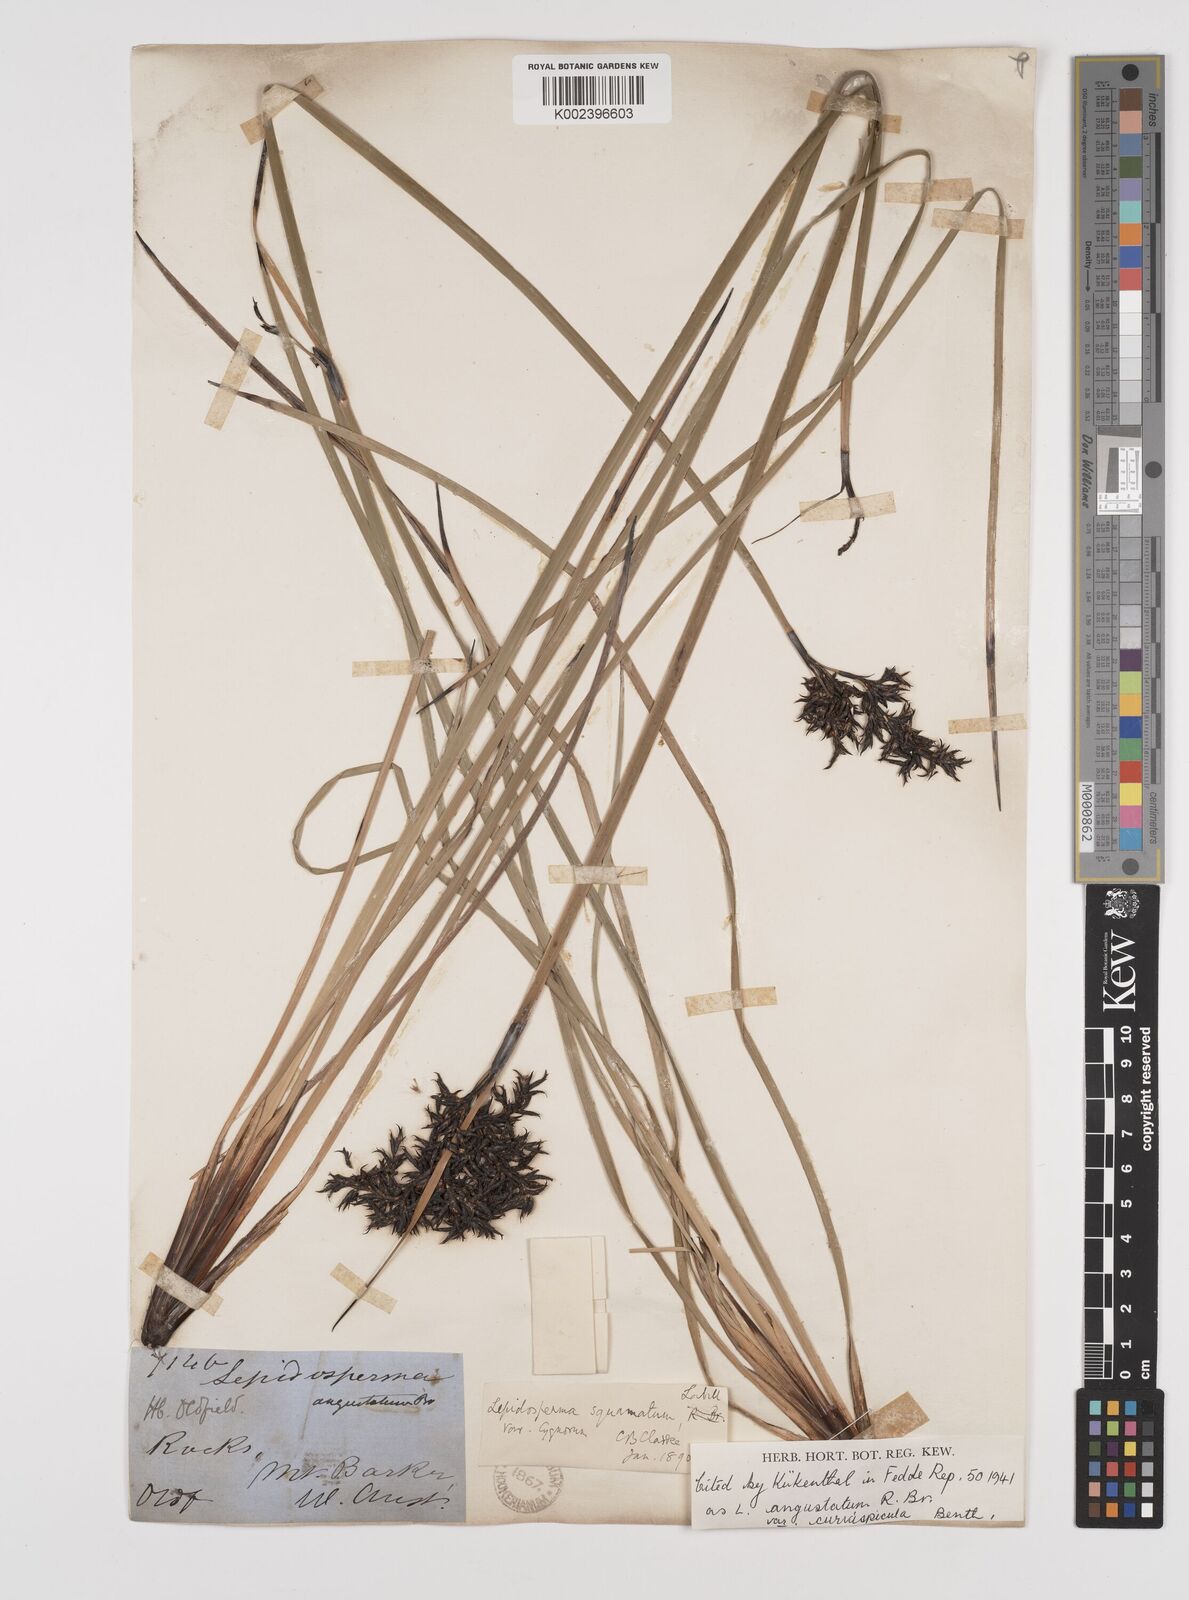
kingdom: Plantae
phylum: Tracheophyta
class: Liliopsida
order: Poales
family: Cyperaceae
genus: Lepidosperma
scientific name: Lepidosperma angustatum
